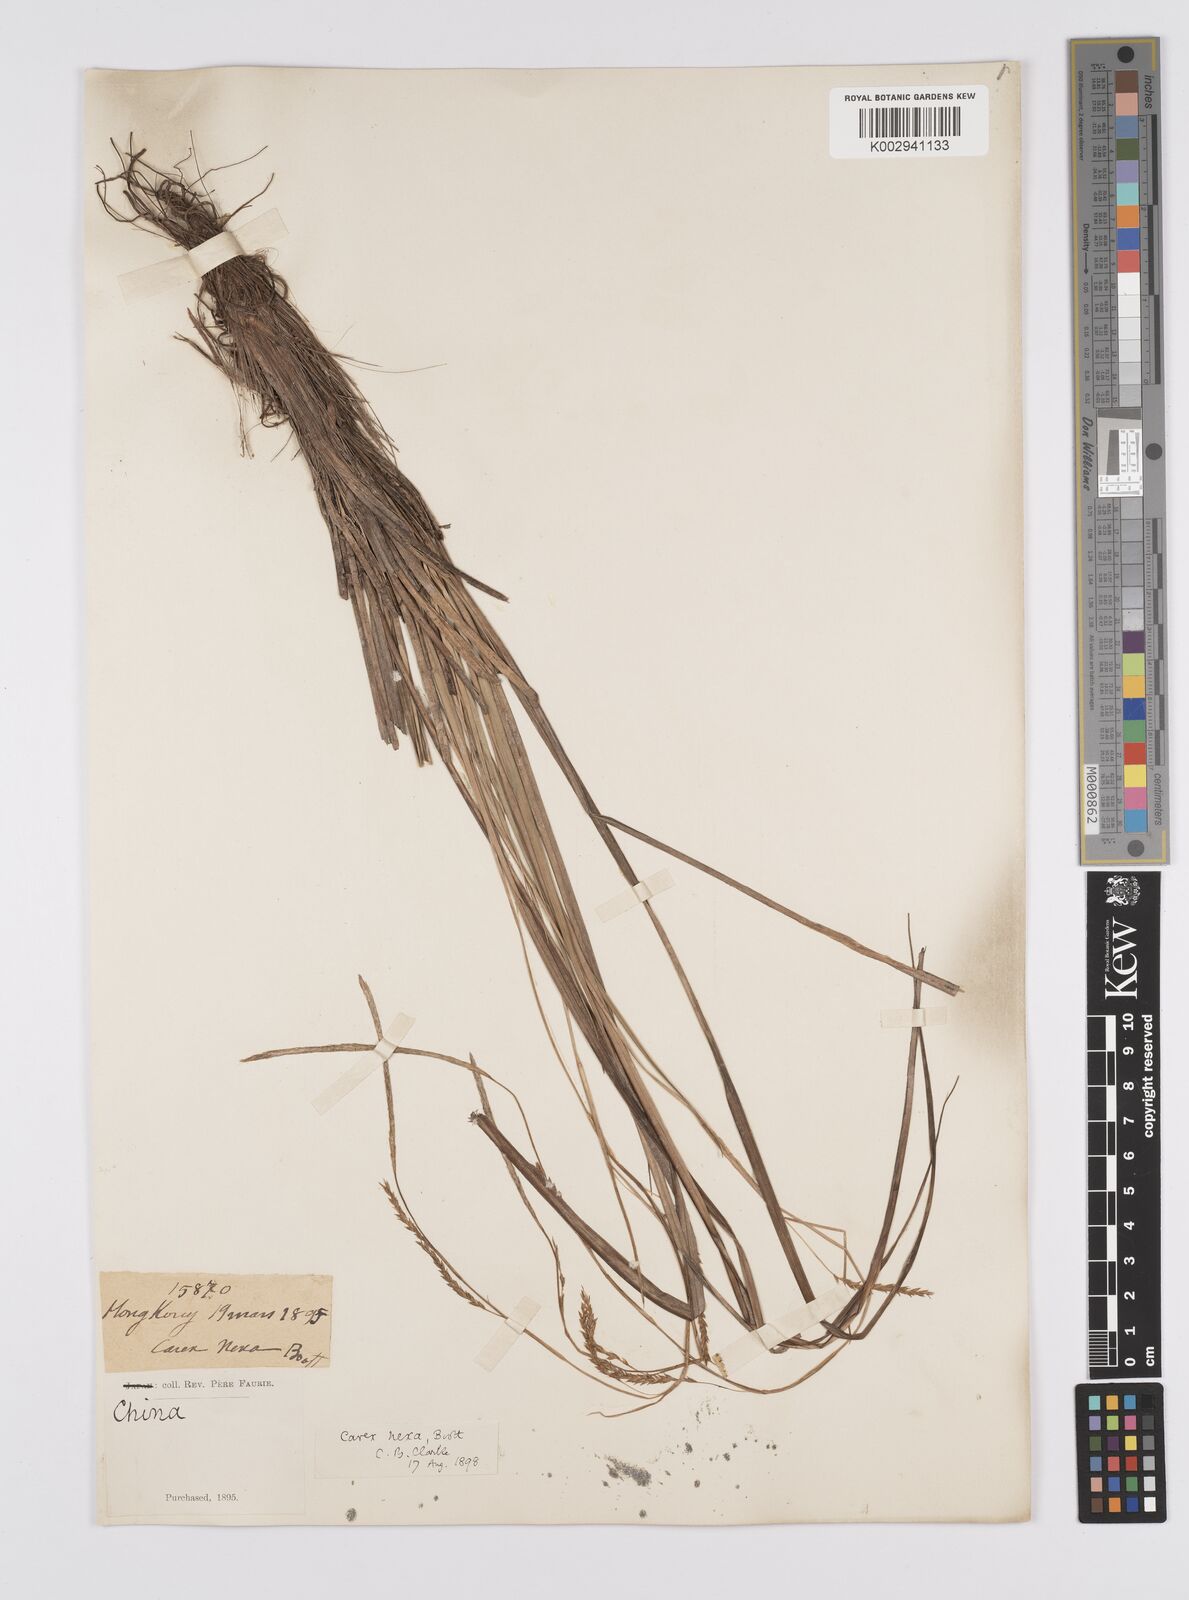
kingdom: Plantae
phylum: Tracheophyta
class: Liliopsida
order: Poales
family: Cyperaceae
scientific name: Cyperaceae
